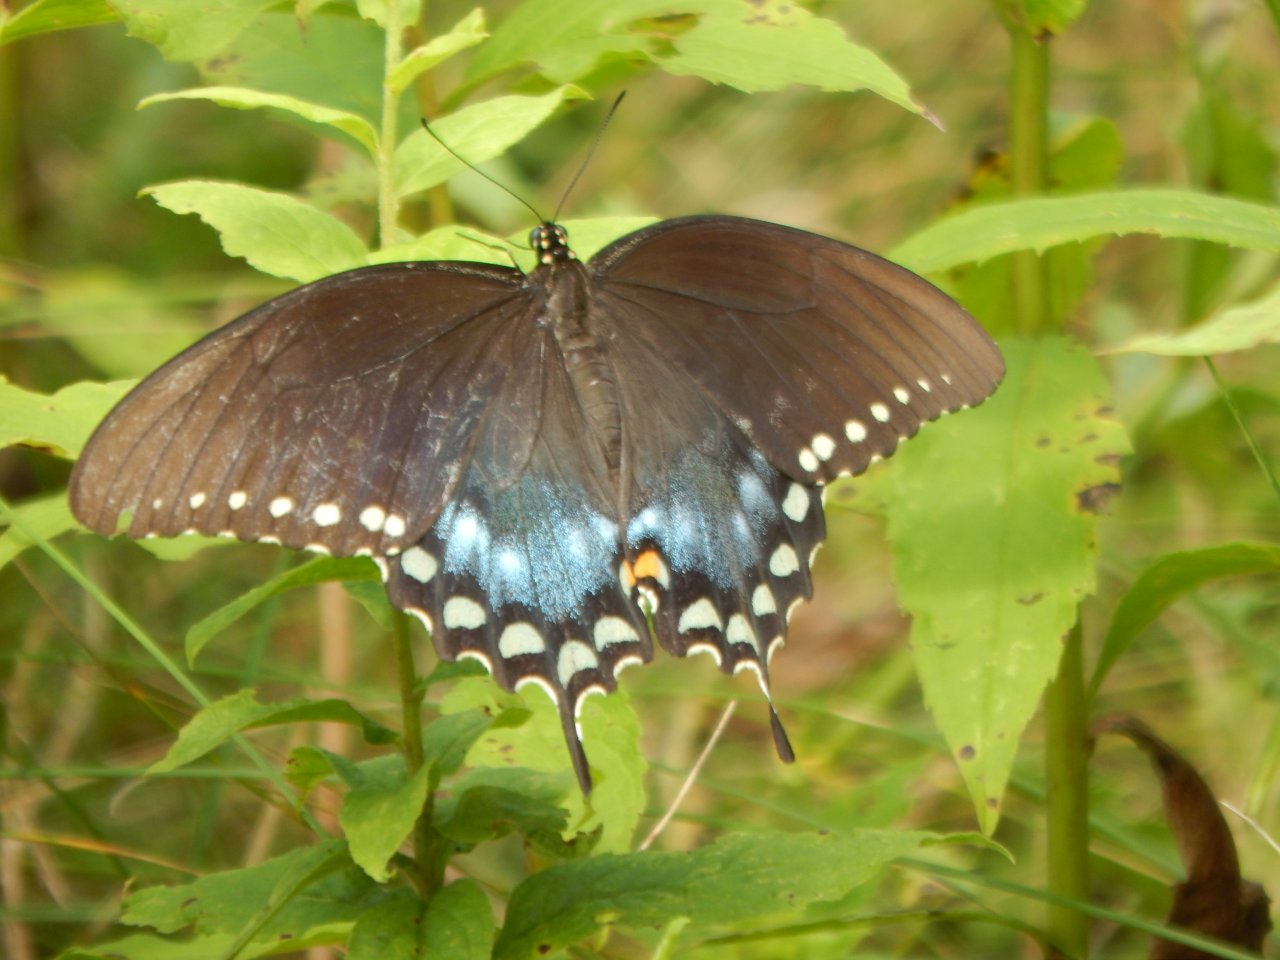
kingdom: Animalia
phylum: Arthropoda
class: Insecta
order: Lepidoptera
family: Papilionidae
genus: Pterourus
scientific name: Pterourus troilus
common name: Spicebush Swallowtail
